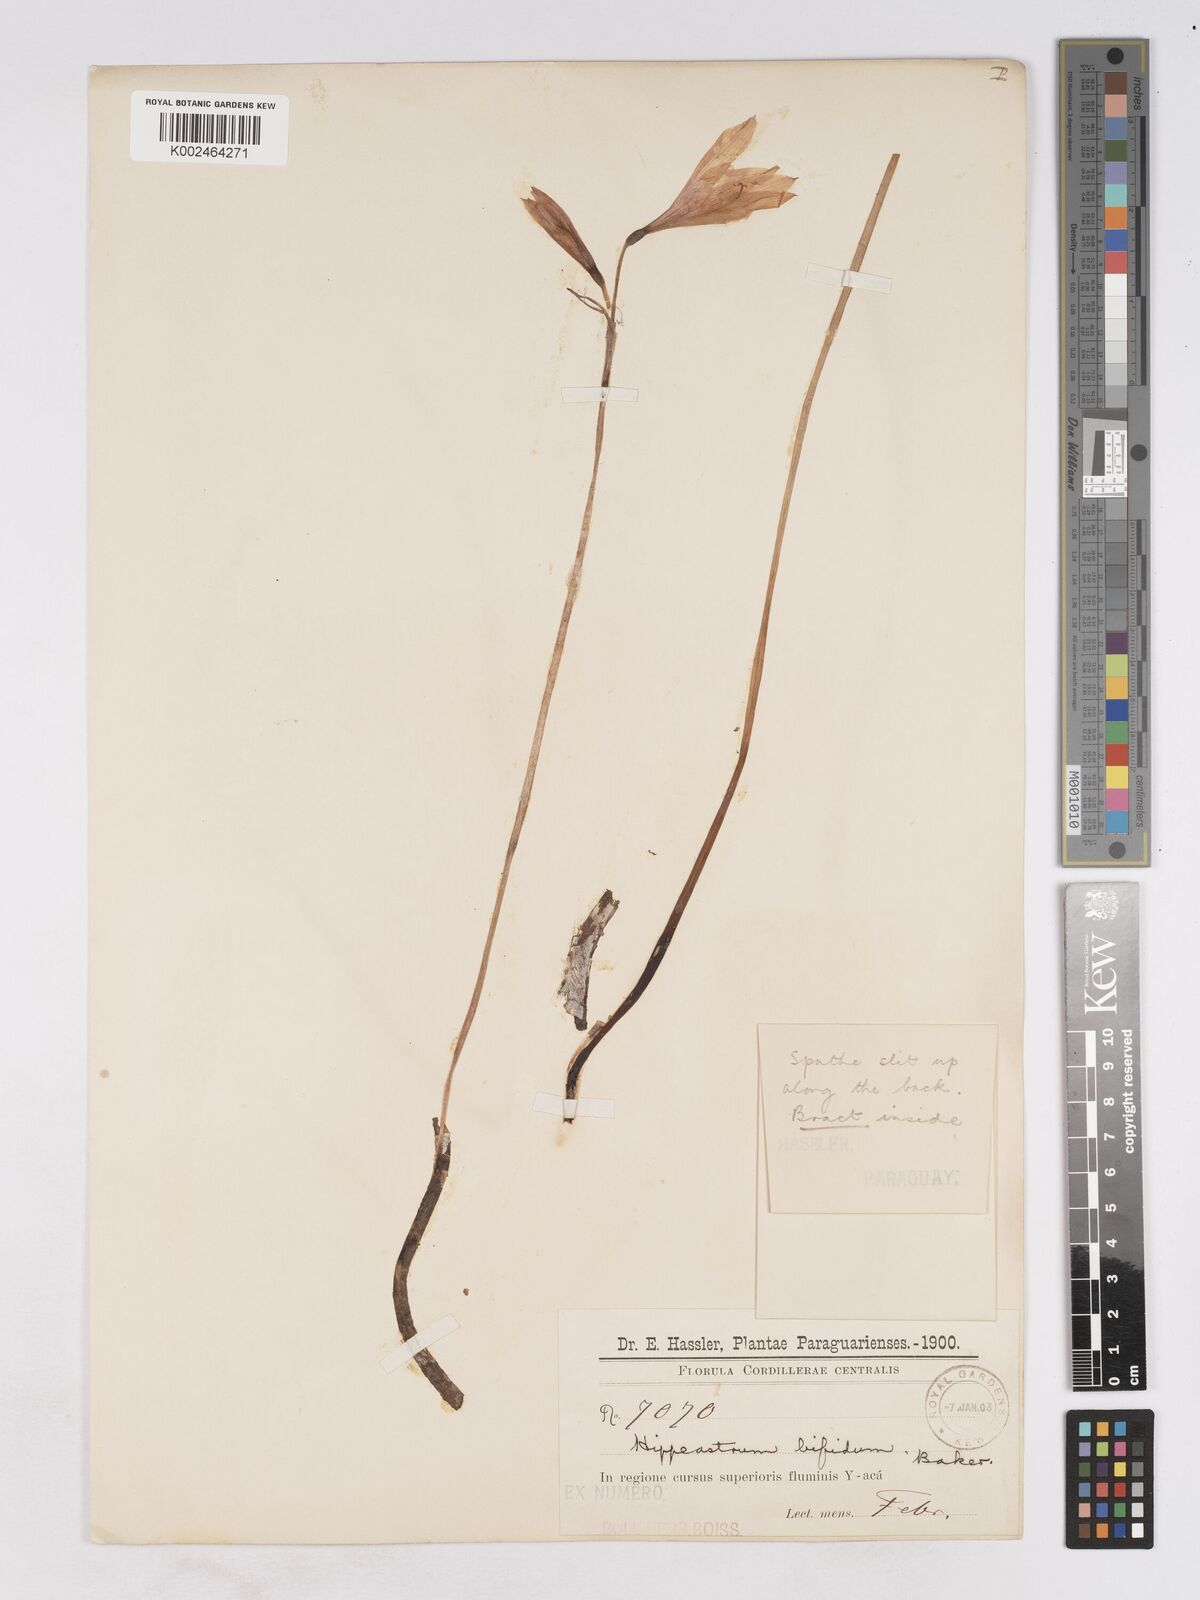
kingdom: Plantae
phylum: Tracheophyta
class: Liliopsida
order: Asparagales
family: Amaryllidaceae
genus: Zephyranthes
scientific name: Zephyranthes pedunculosa
